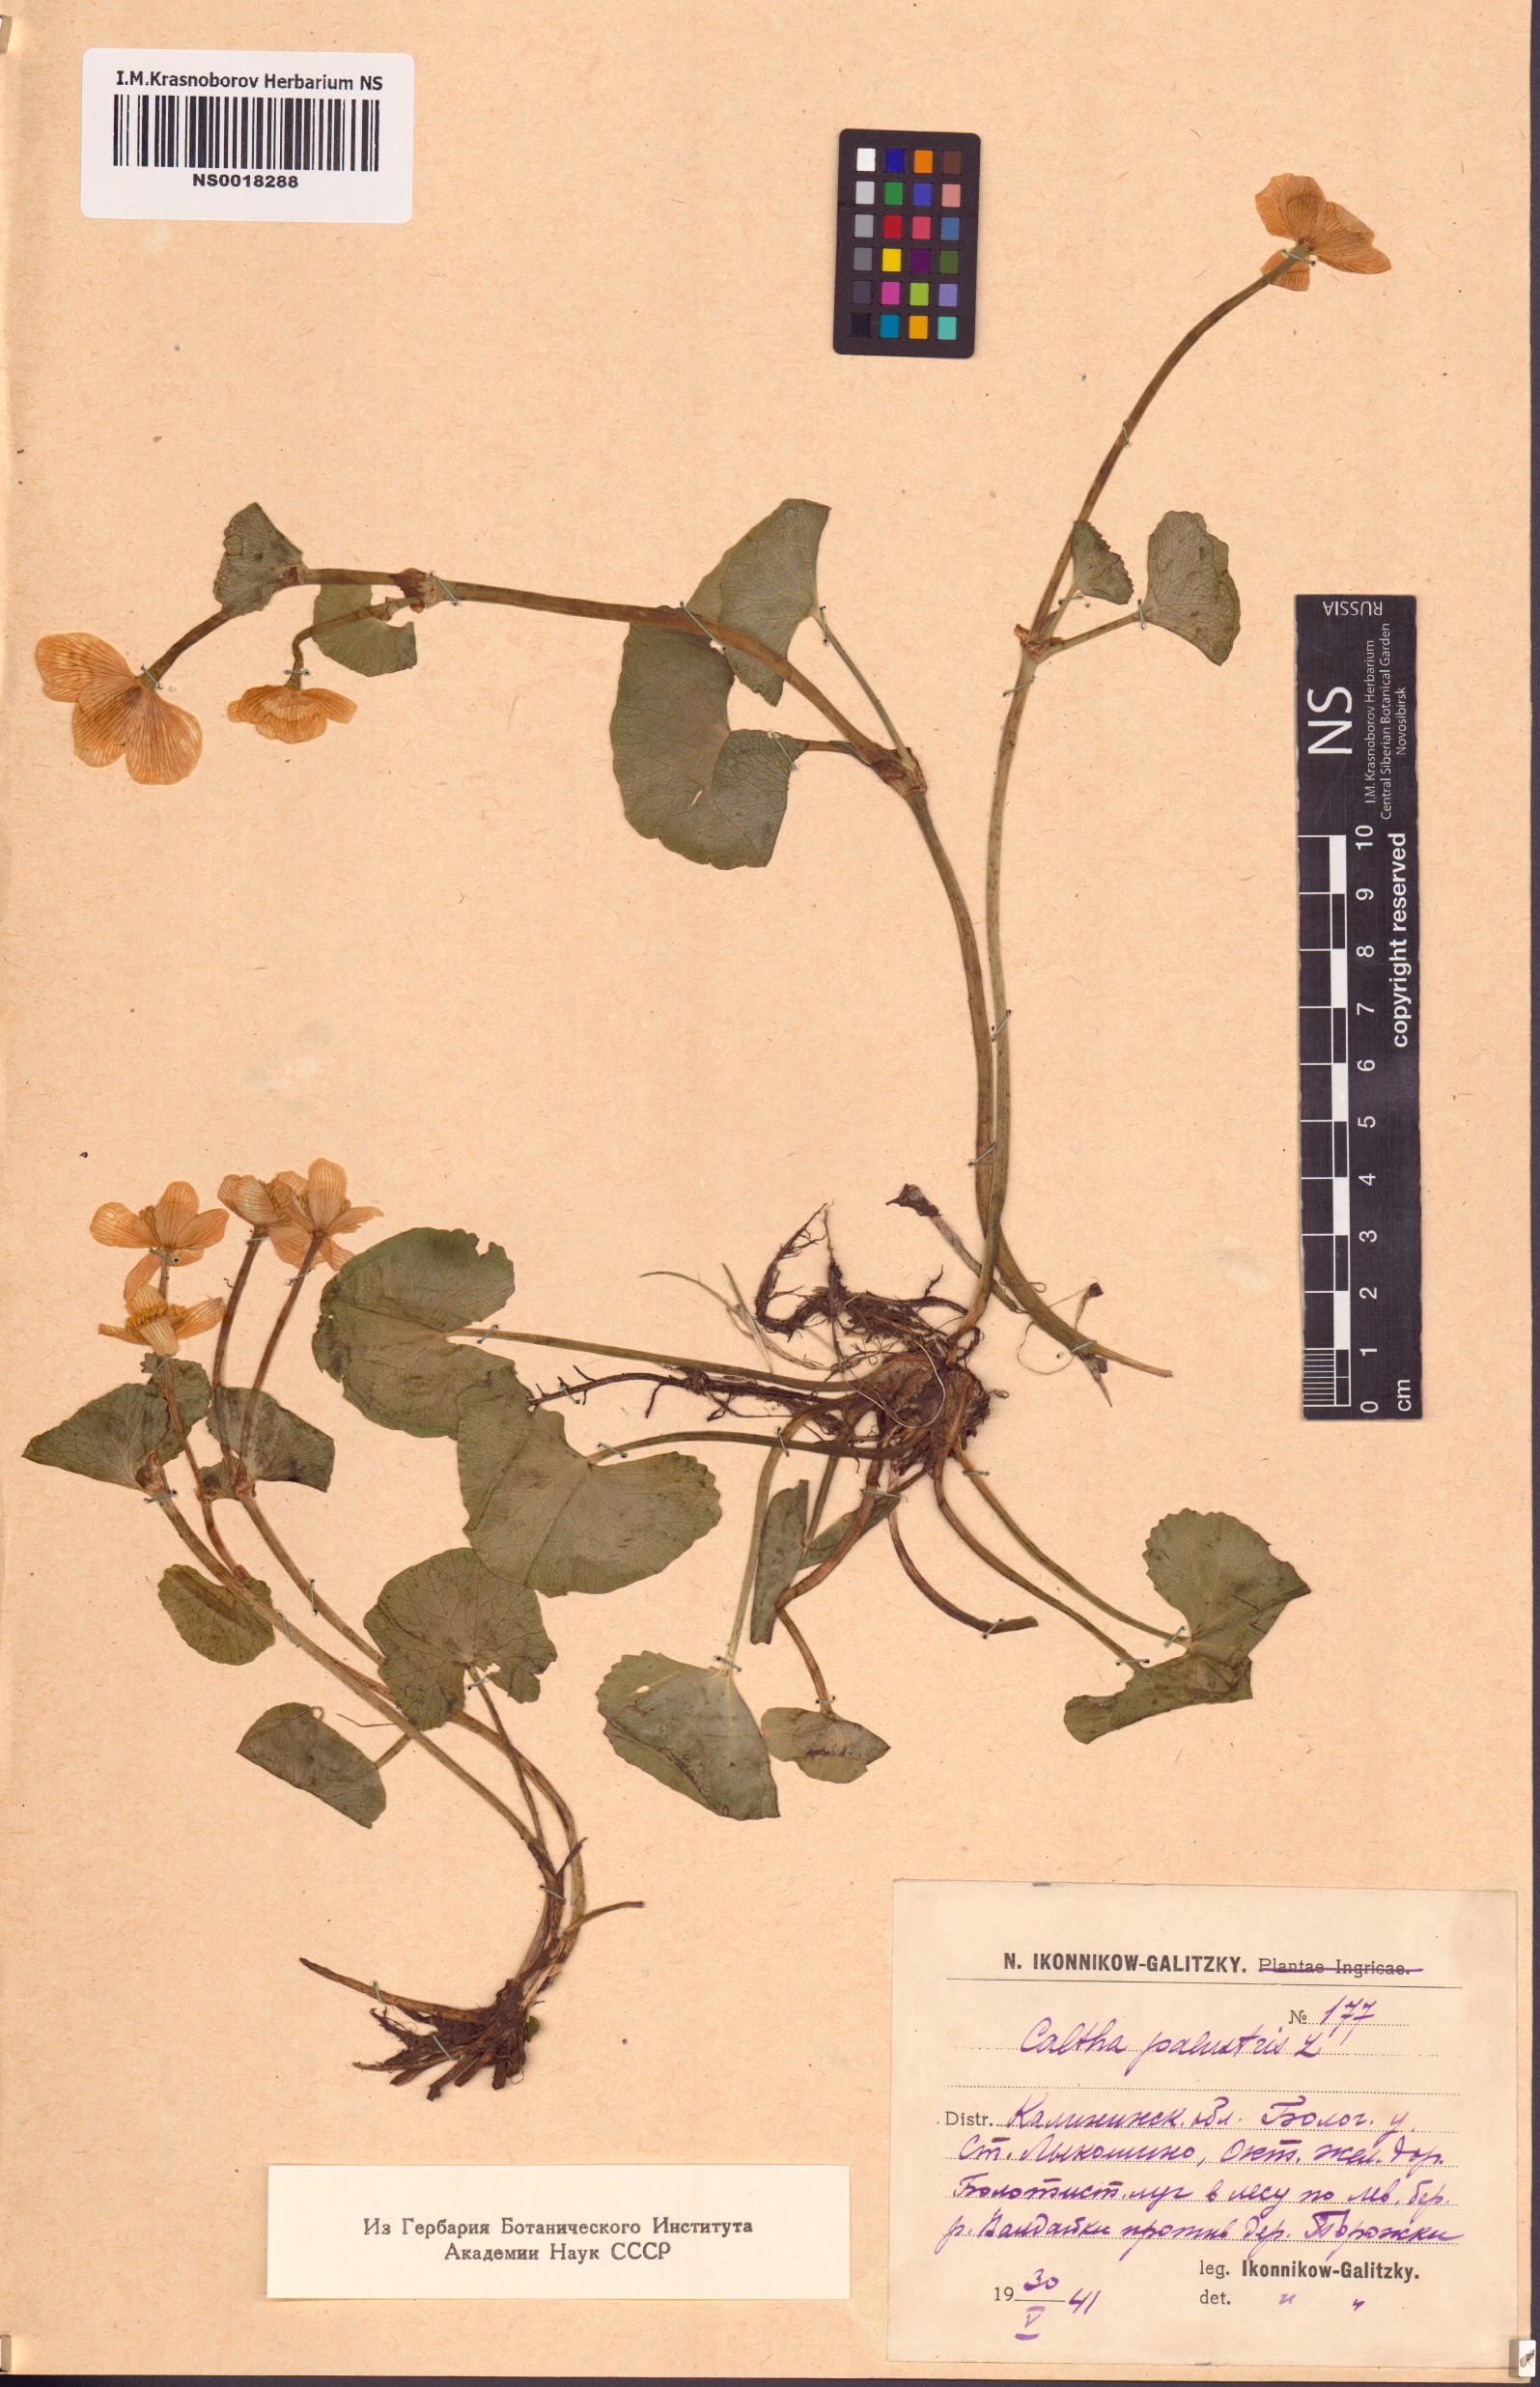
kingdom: Plantae
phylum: Tracheophyta
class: Magnoliopsida
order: Ranunculales
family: Ranunculaceae
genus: Caltha
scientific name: Caltha palustris
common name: Marsh marigold
